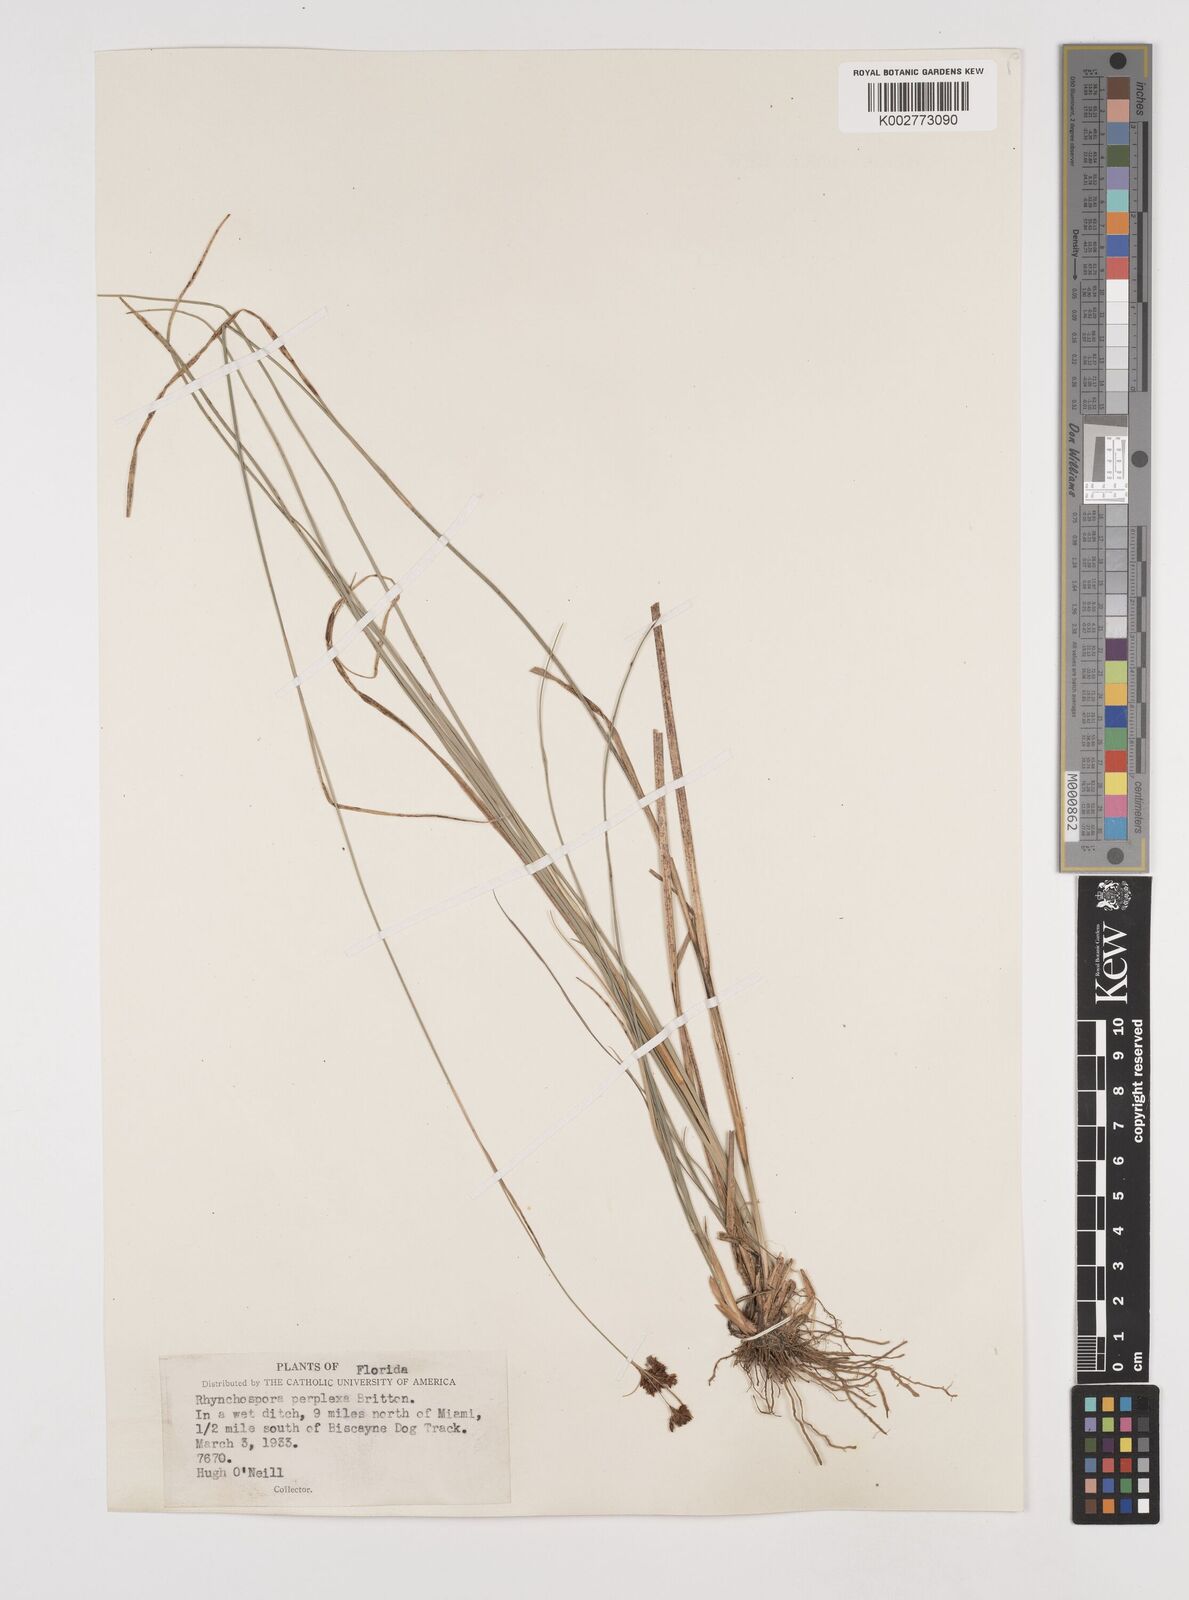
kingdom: Plantae
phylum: Tracheophyta
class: Liliopsida
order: Poales
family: Cyperaceae
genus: Rhynchospora
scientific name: Rhynchospora perplexa
